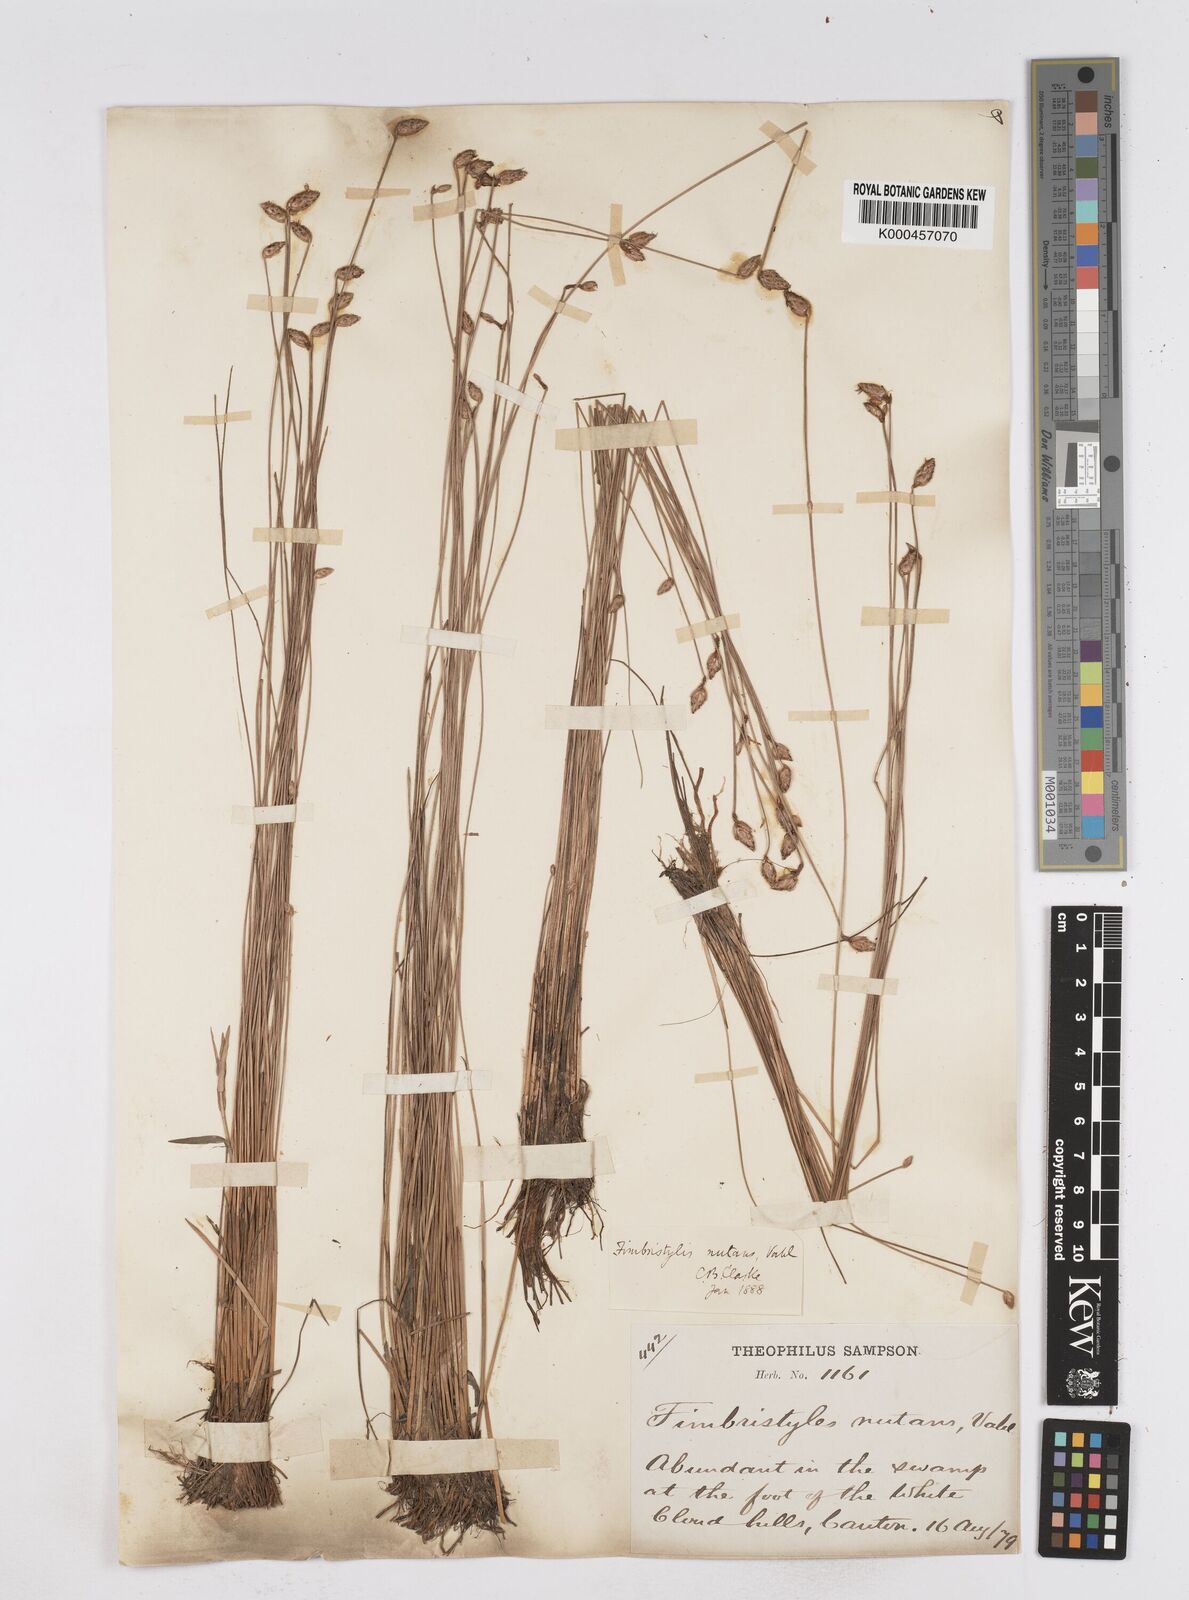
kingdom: Plantae
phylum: Tracheophyta
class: Liliopsida
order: Poales
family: Cyperaceae
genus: Fimbristylis
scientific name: Fimbristylis nutans
